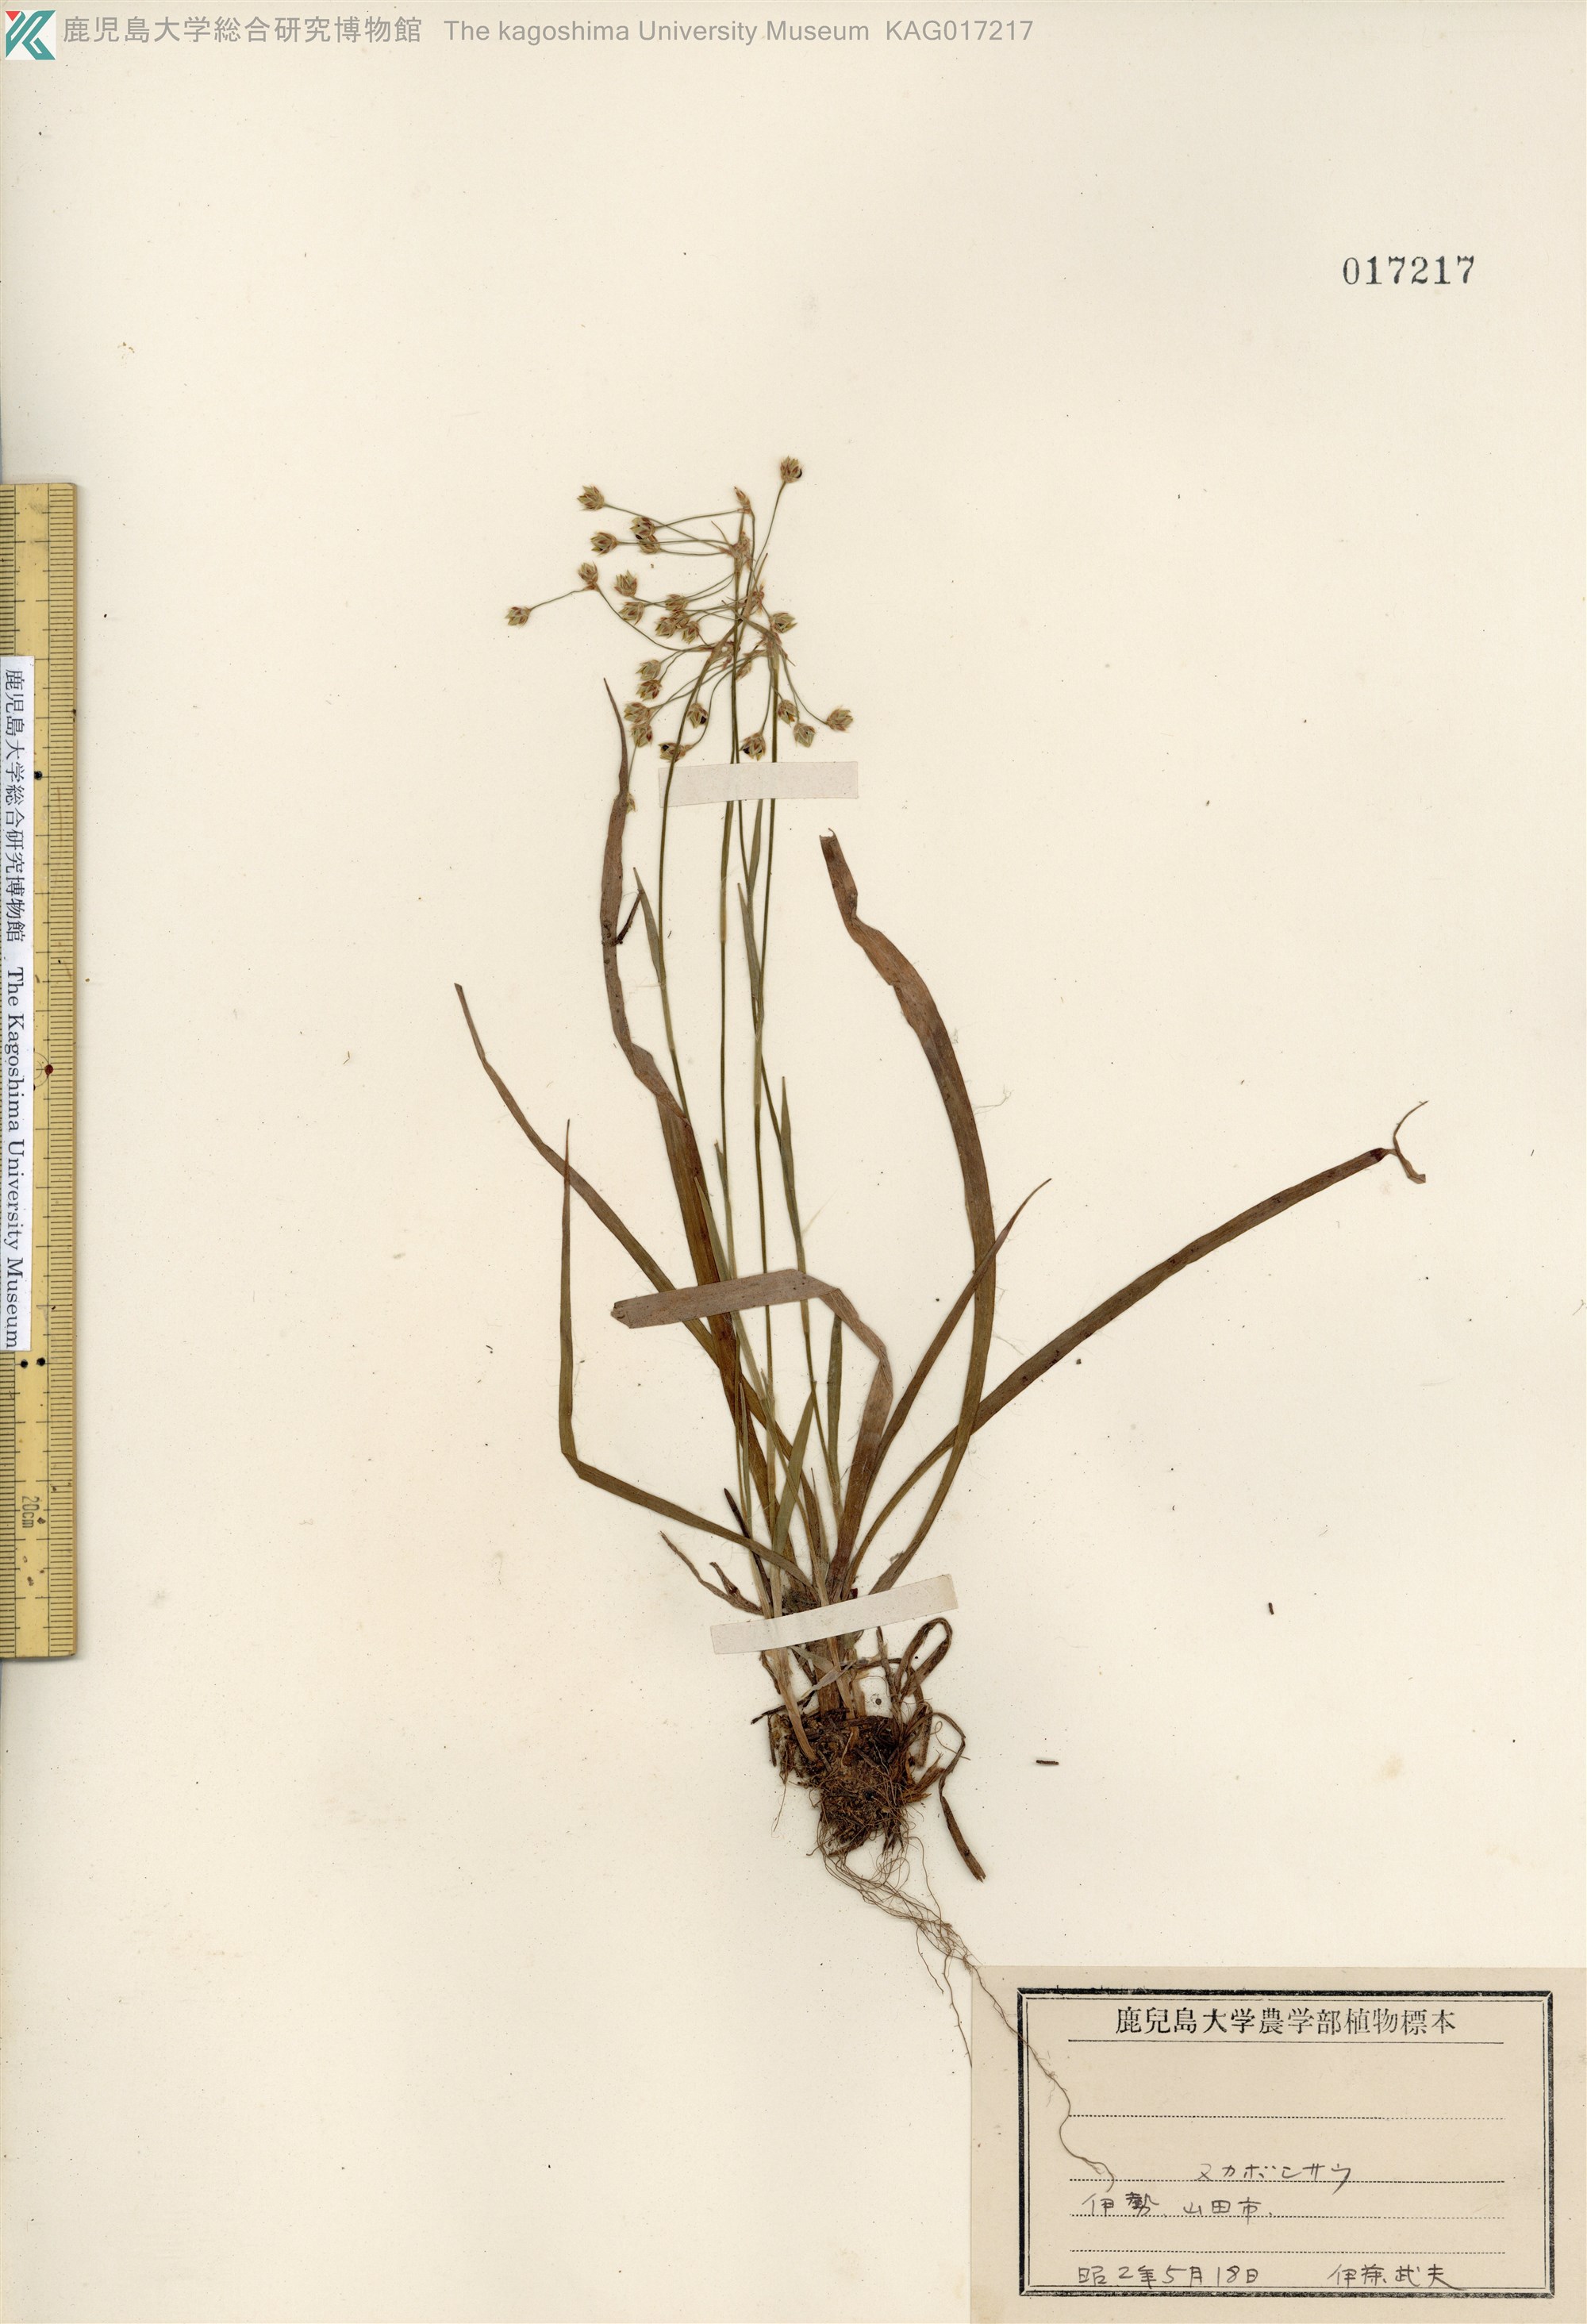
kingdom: Plantae
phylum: Tracheophyta
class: Liliopsida
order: Poales
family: Juncaceae
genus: Luzula
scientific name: Luzula plumosa
